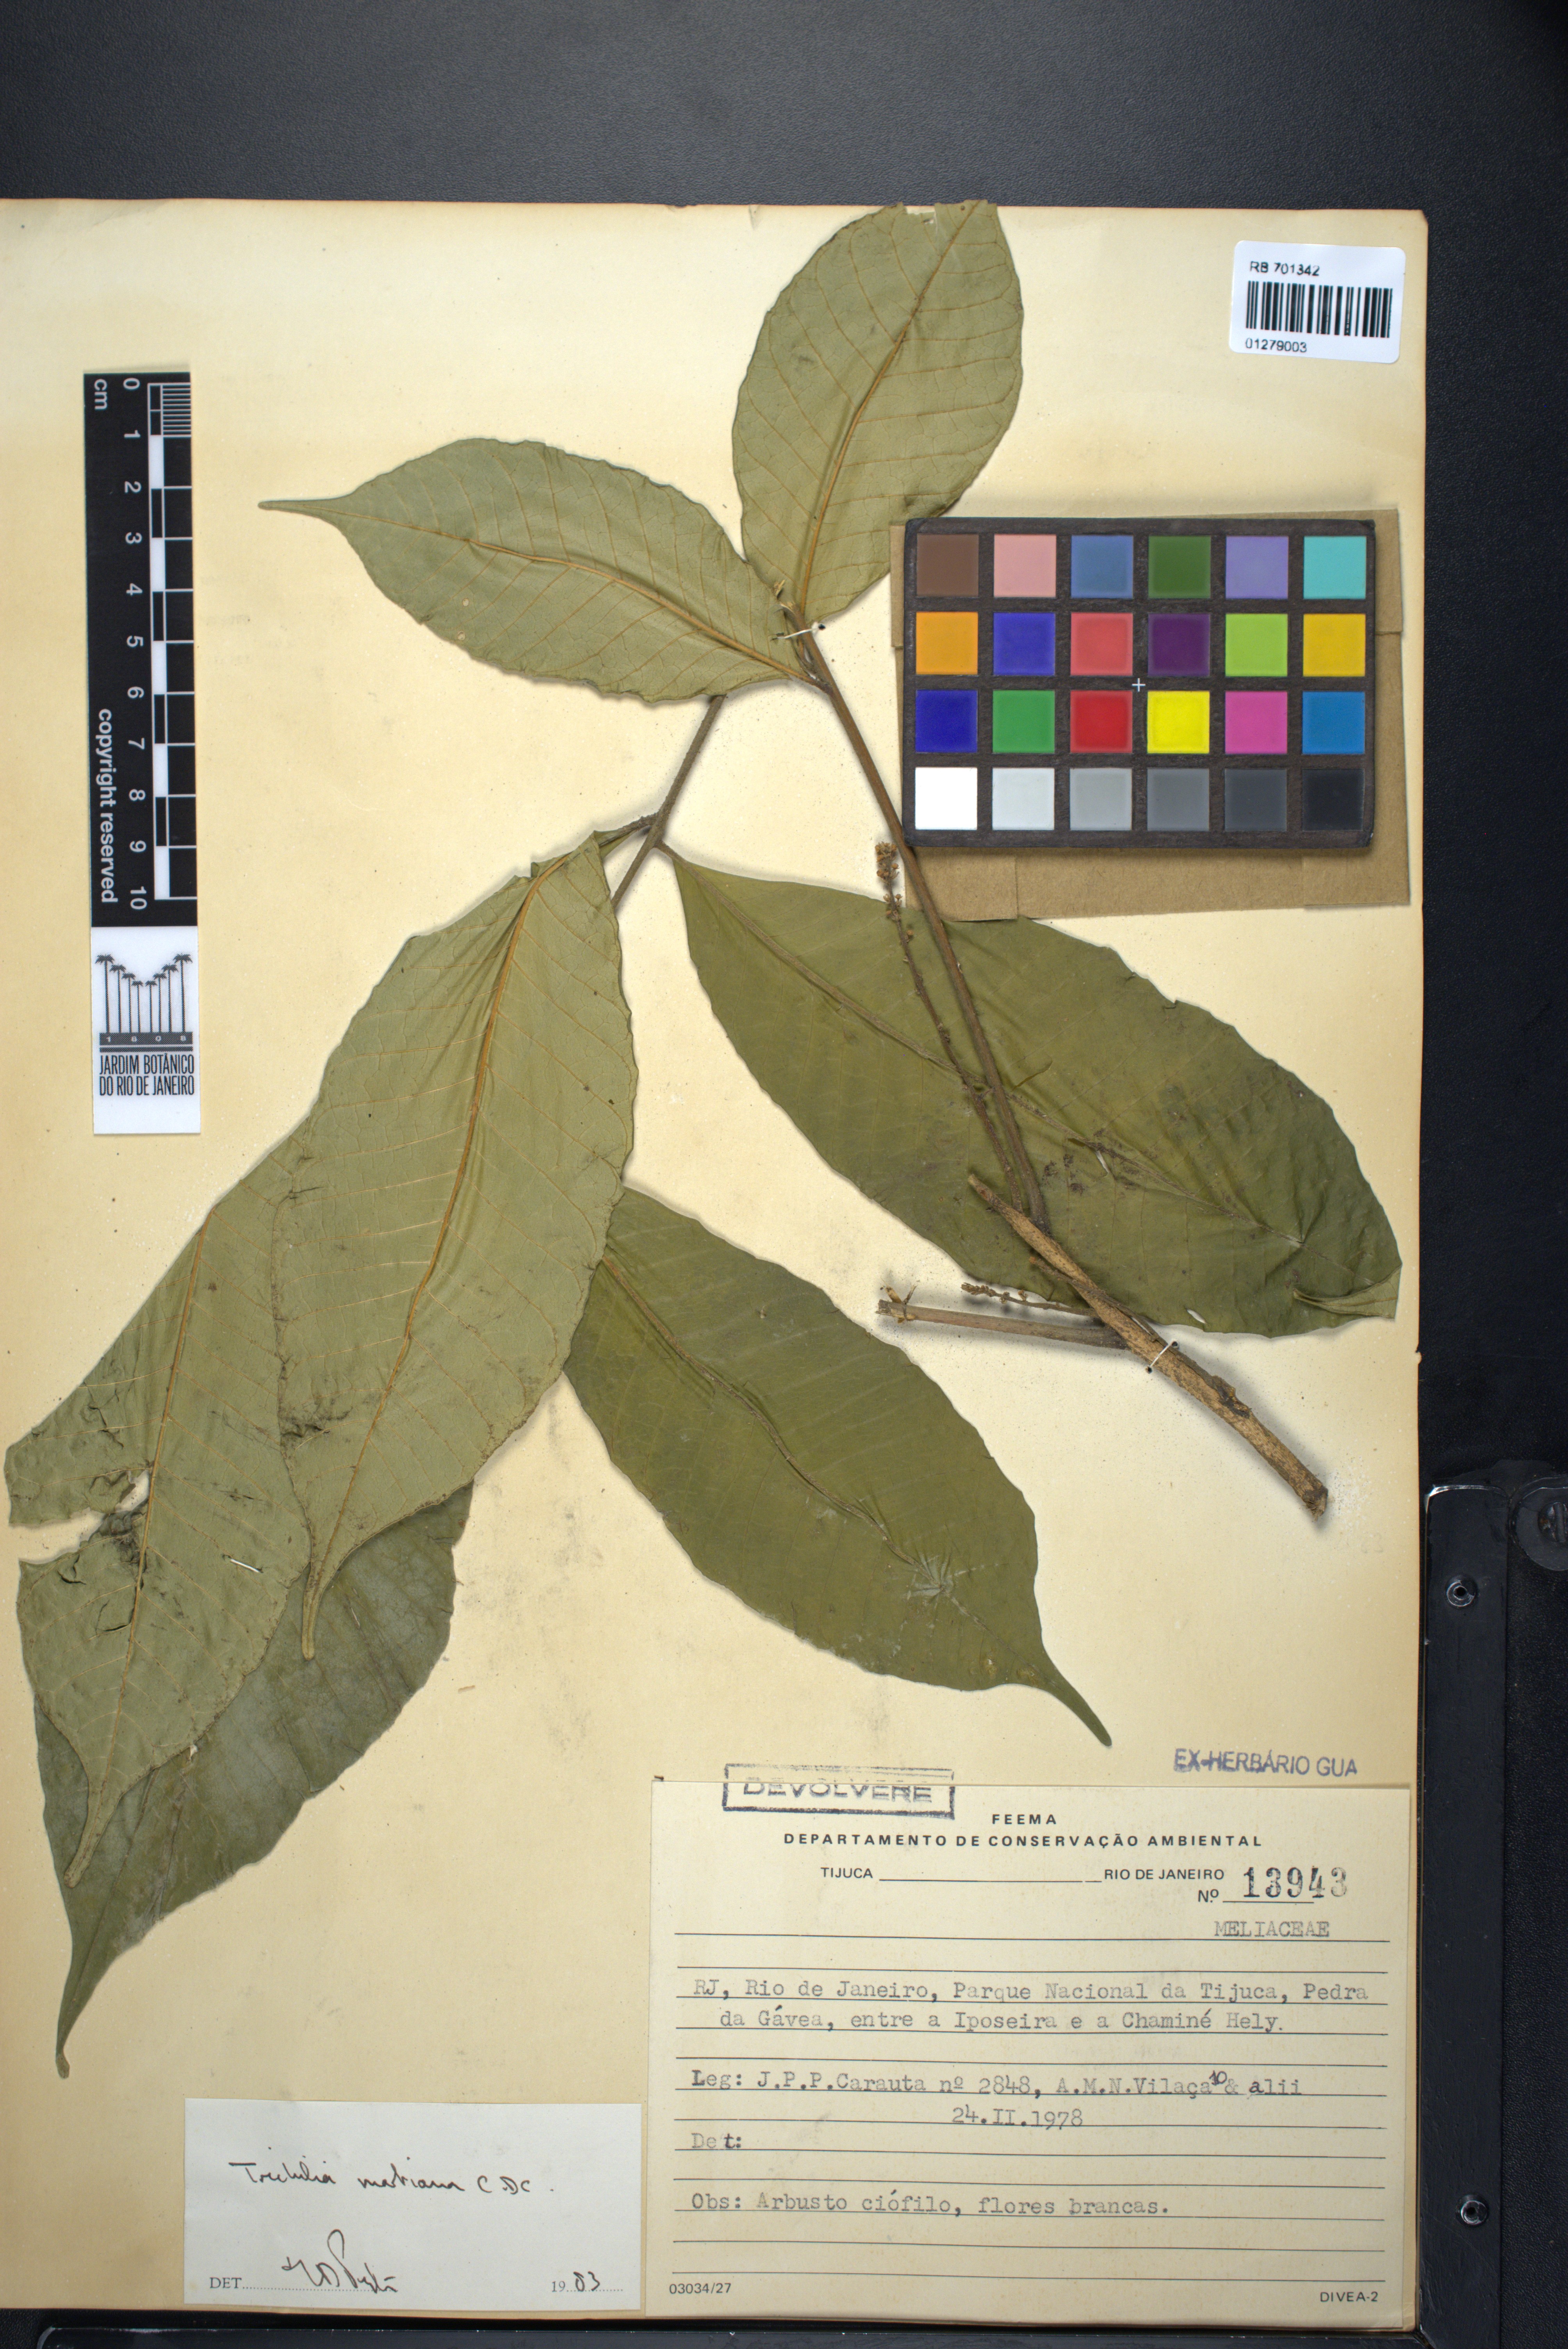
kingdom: Plantae
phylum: Tracheophyta
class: Magnoliopsida
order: Sapindales
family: Meliaceae
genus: Trichilia
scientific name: Trichilia martiana
